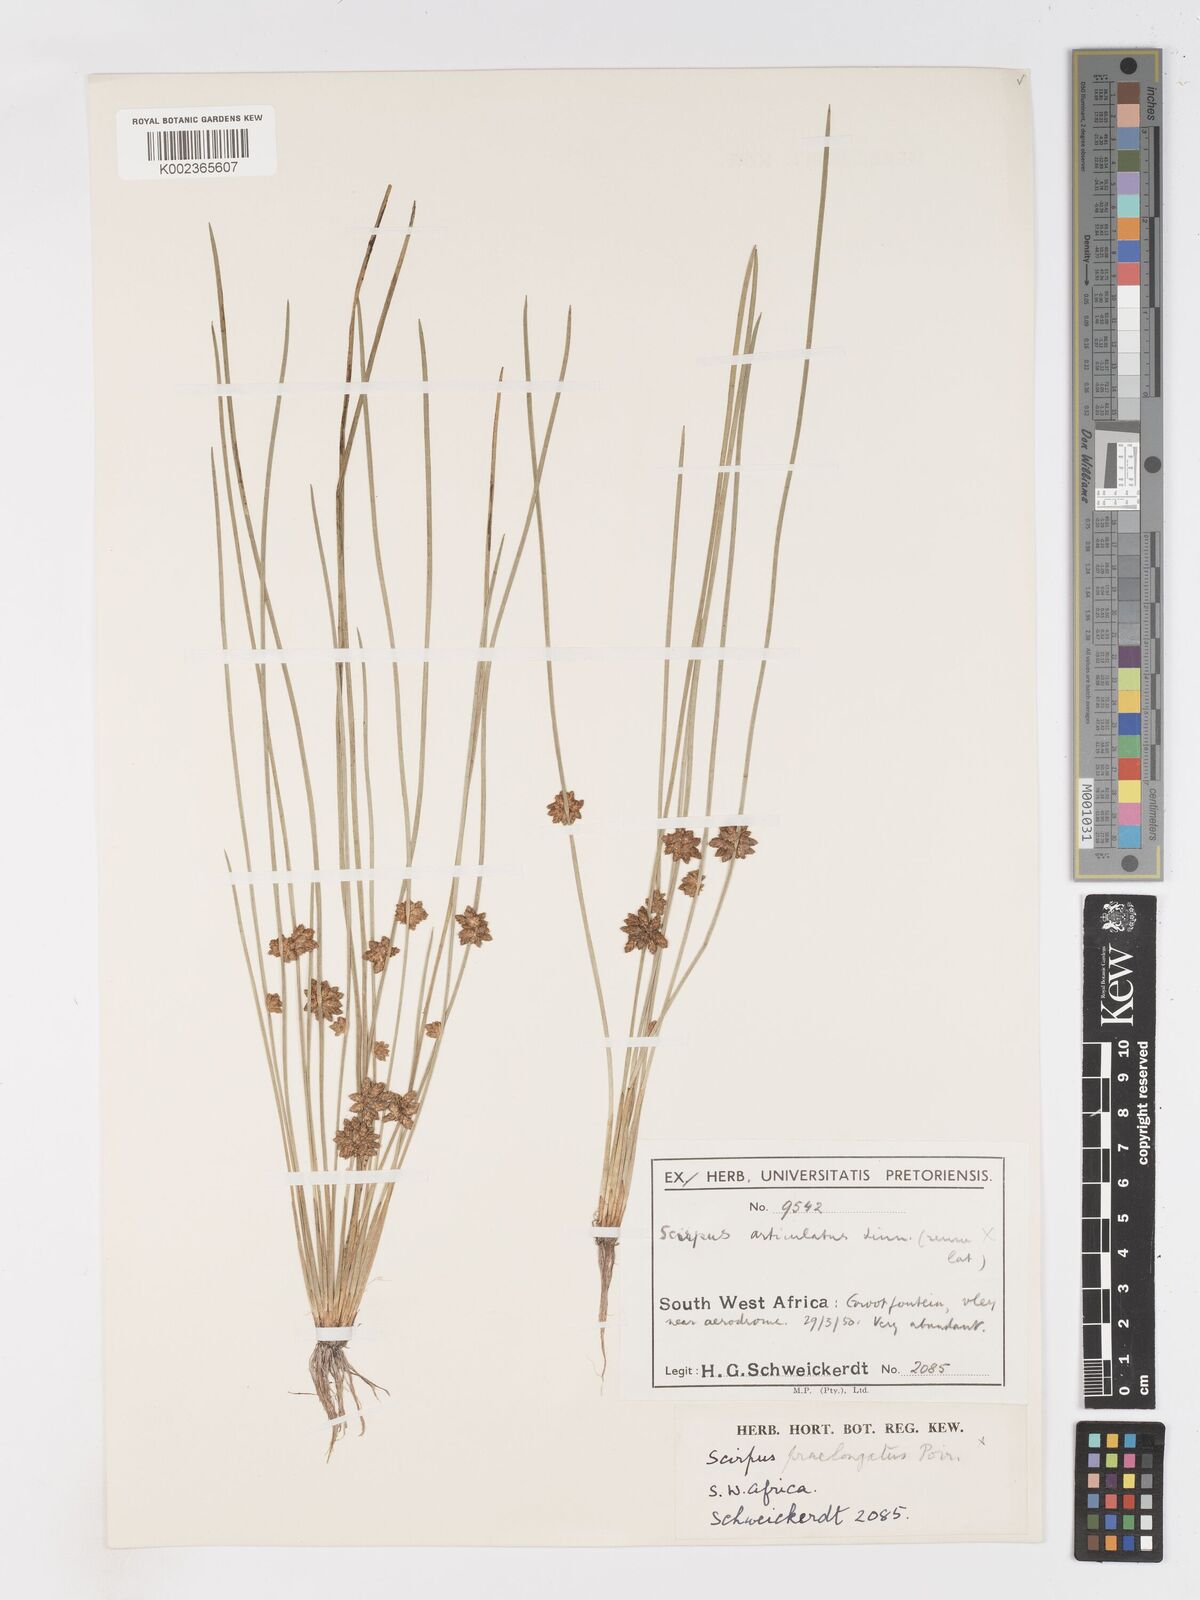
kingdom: Plantae
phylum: Tracheophyta
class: Liliopsida
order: Poales
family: Cyperaceae
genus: Schoenoplectiella
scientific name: Schoenoplectiella senegalensis
